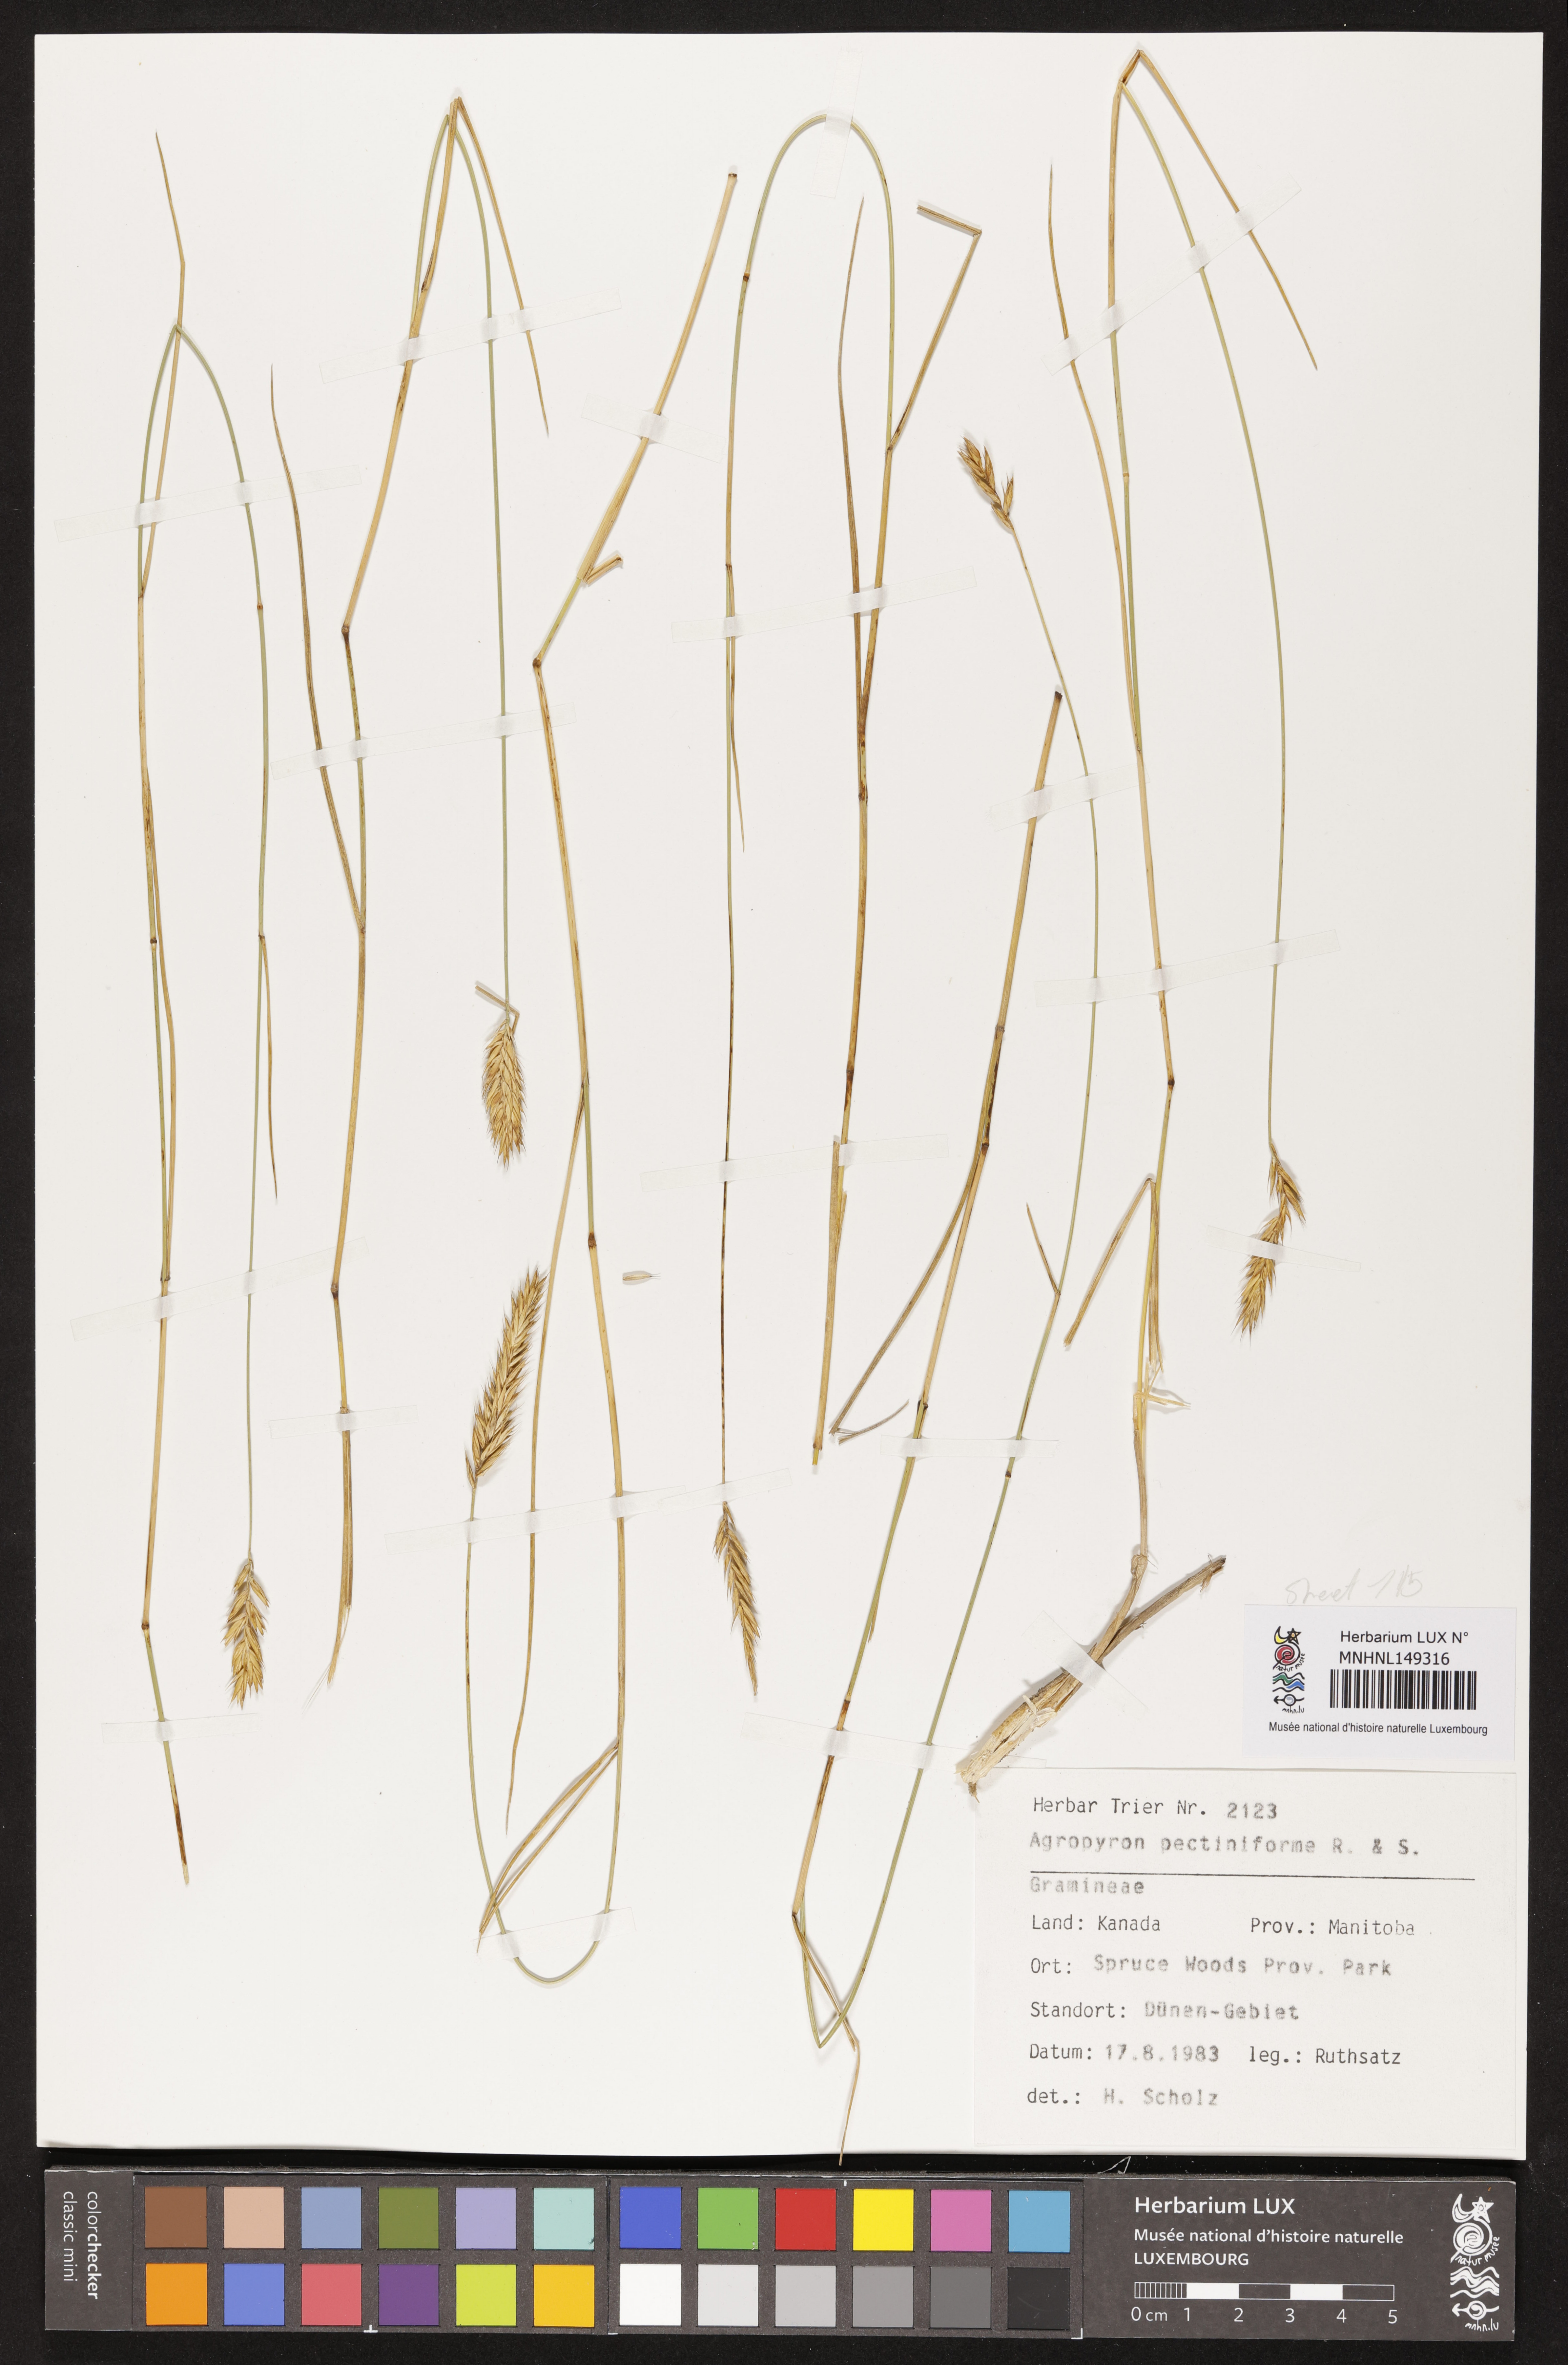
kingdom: Plantae
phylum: Tracheophyta
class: Liliopsida
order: Poales
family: Poaceae
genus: Agropyron
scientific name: Agropyron cristatum
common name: Crested wheatgrass
